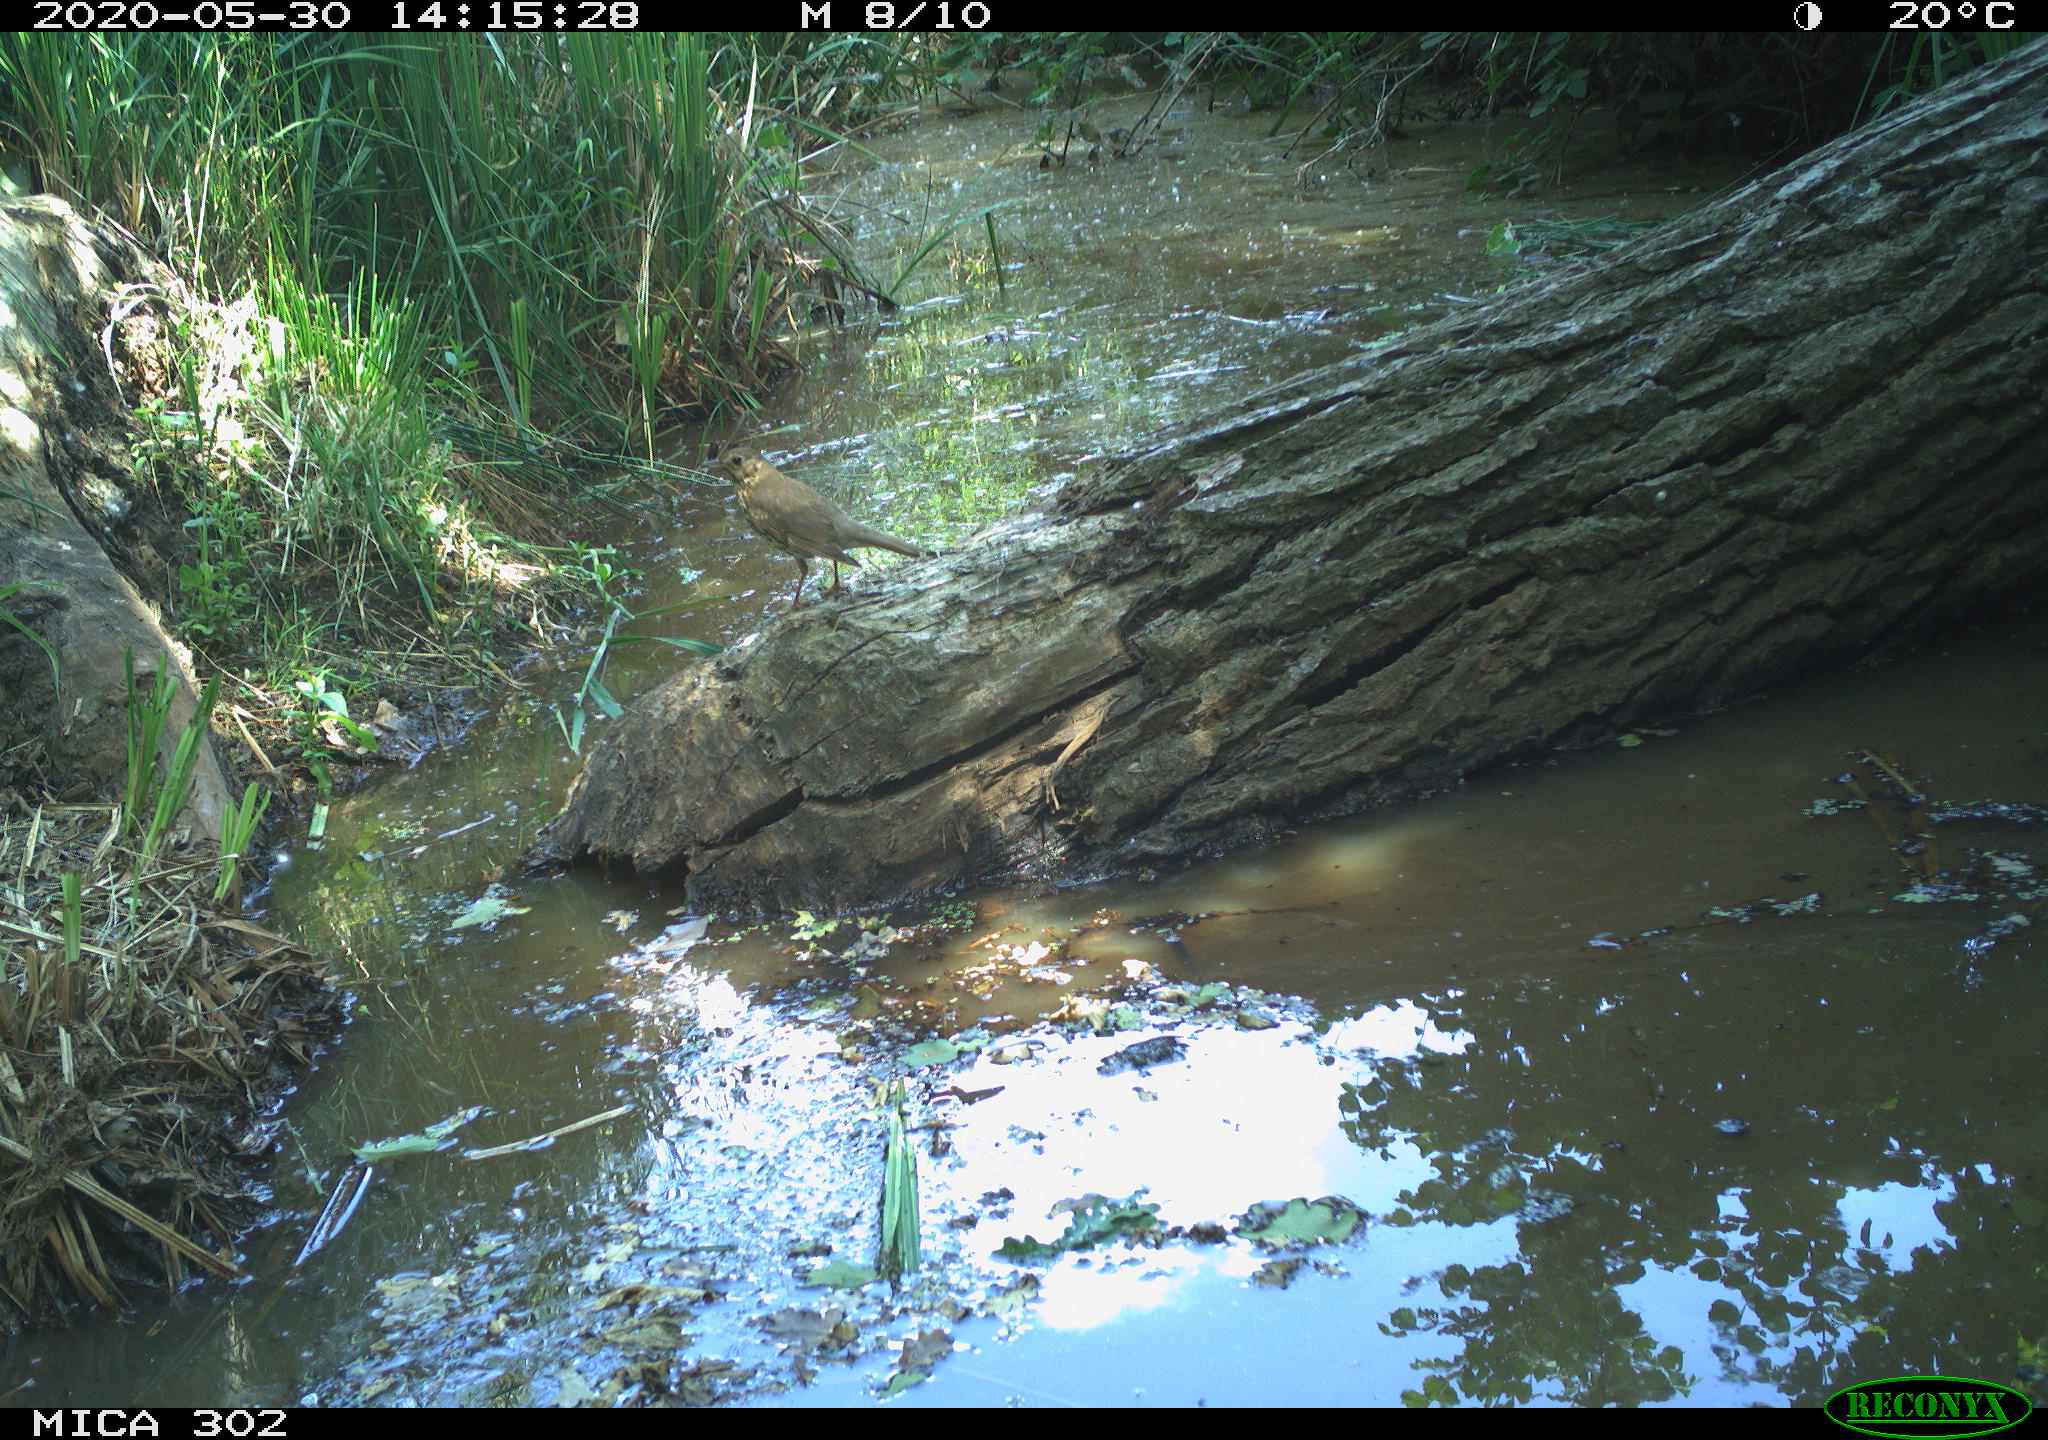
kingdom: Animalia
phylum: Chordata
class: Aves
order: Passeriformes
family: Turdidae
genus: Turdus
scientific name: Turdus philomelos
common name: Song thrush
